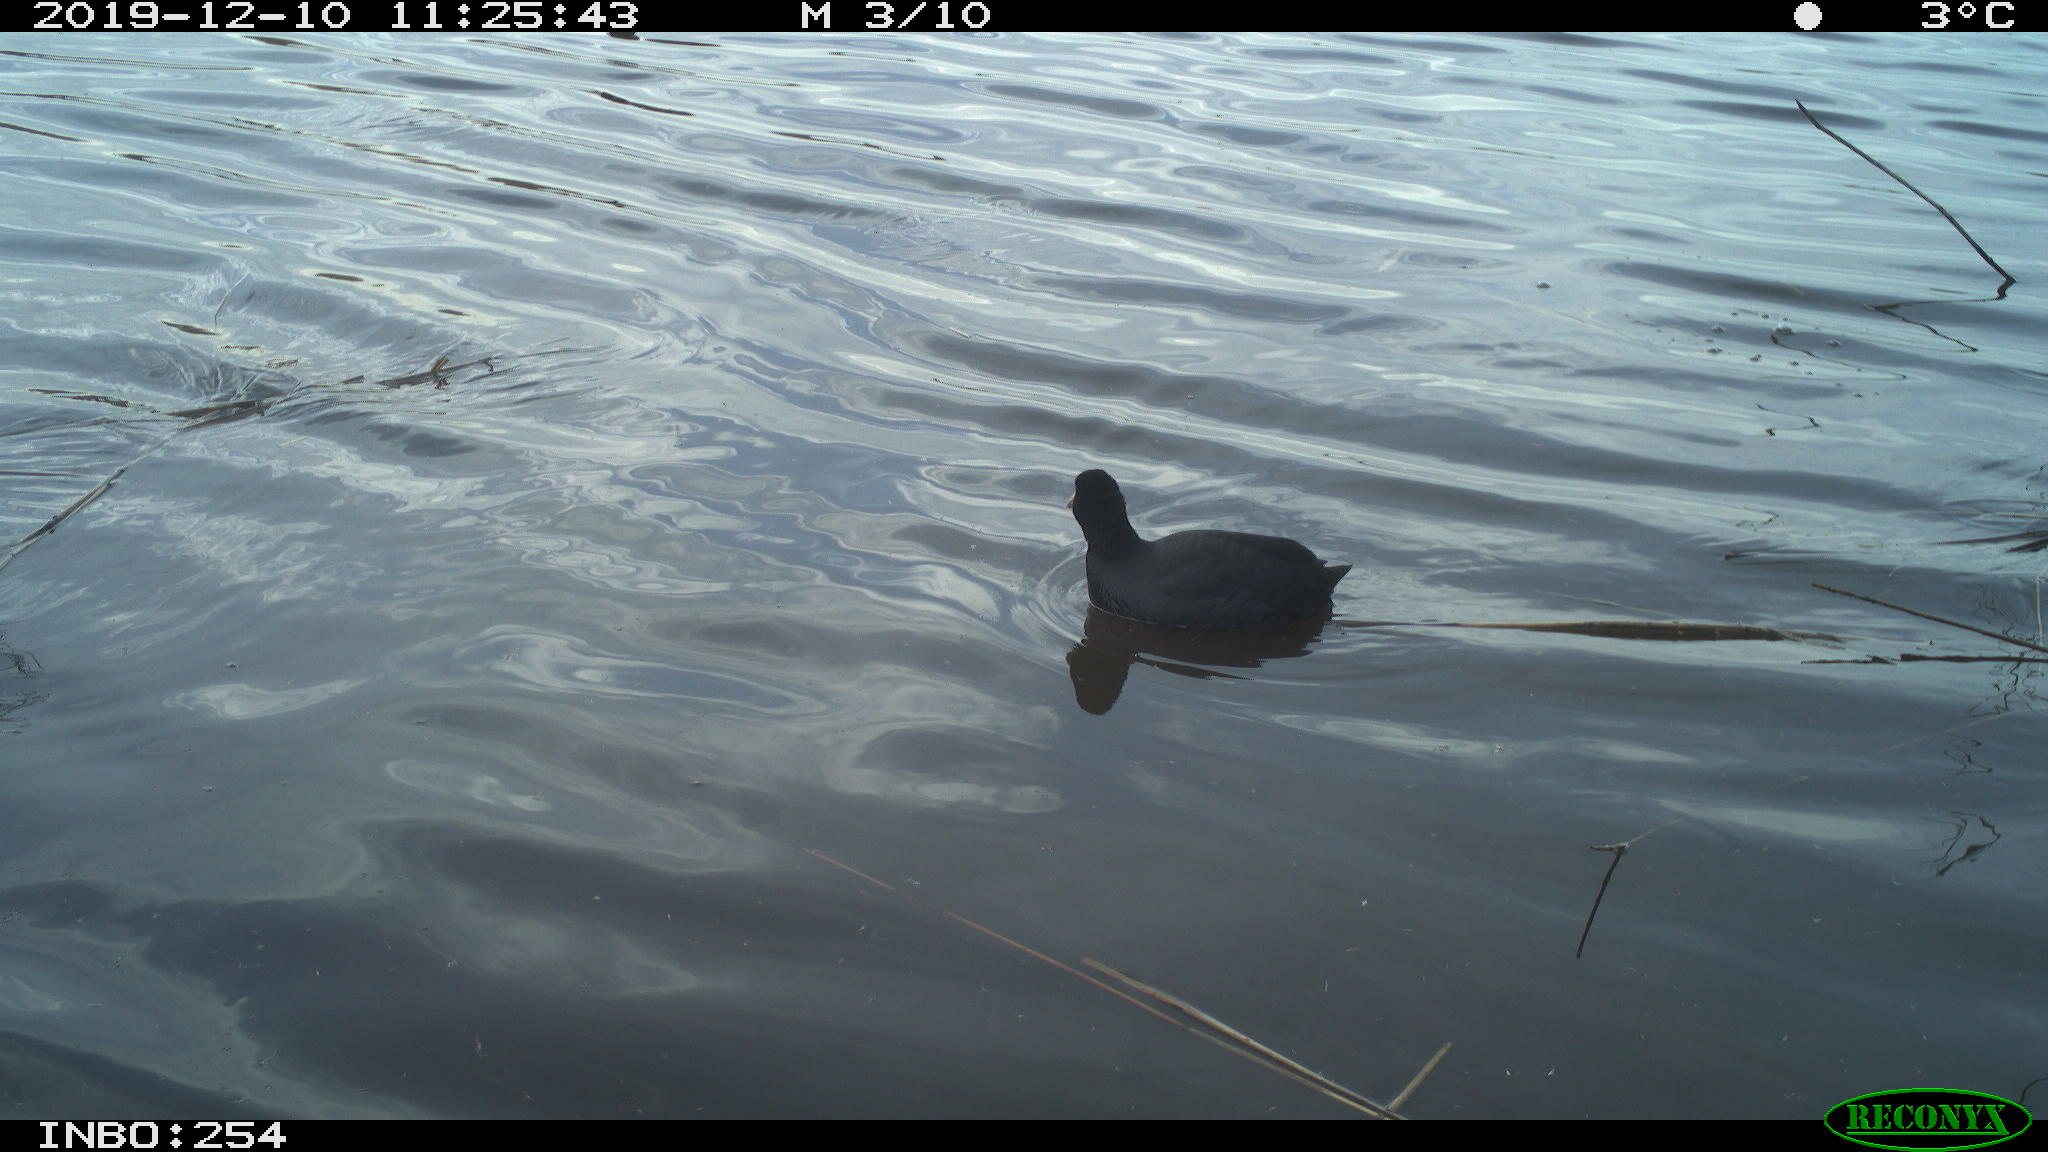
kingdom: Animalia
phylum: Chordata
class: Aves
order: Gruiformes
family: Rallidae
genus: Fulica
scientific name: Fulica atra
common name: Eurasian coot
